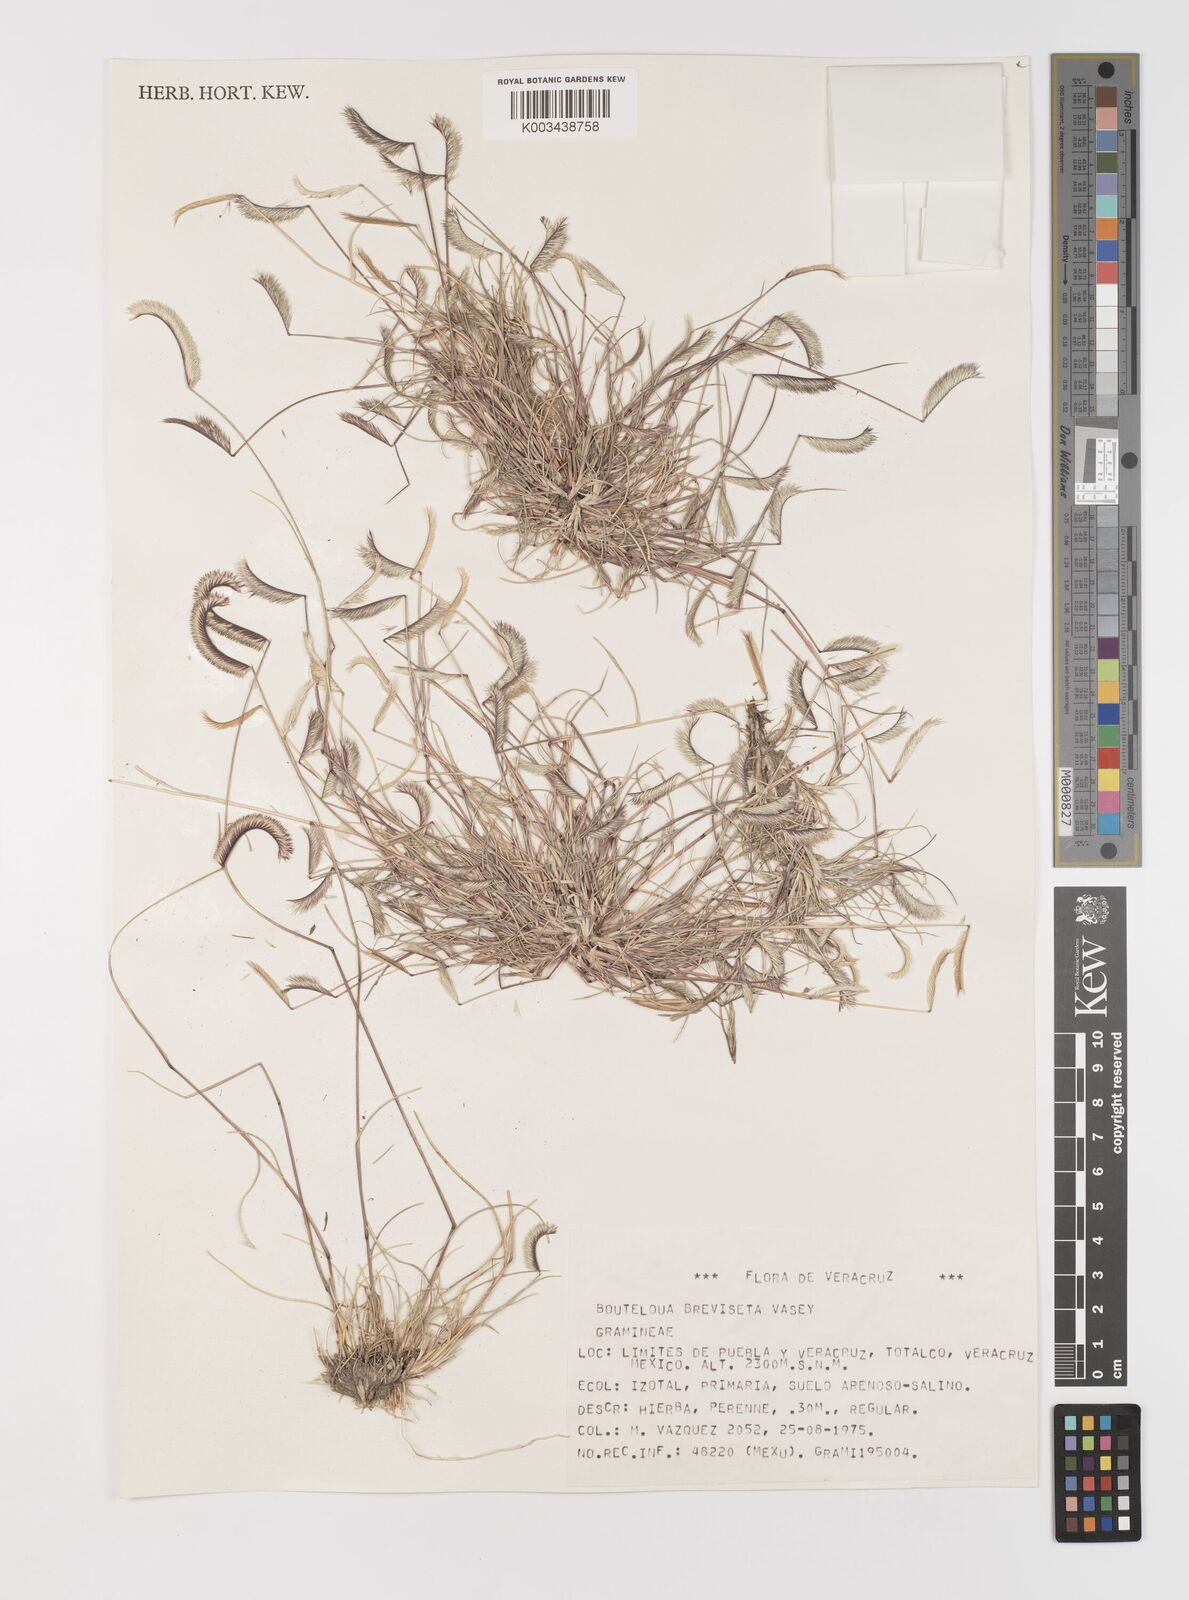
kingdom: Plantae
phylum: Tracheophyta
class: Liliopsida
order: Poales
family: Poaceae
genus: Bouteloua
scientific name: Bouteloua
